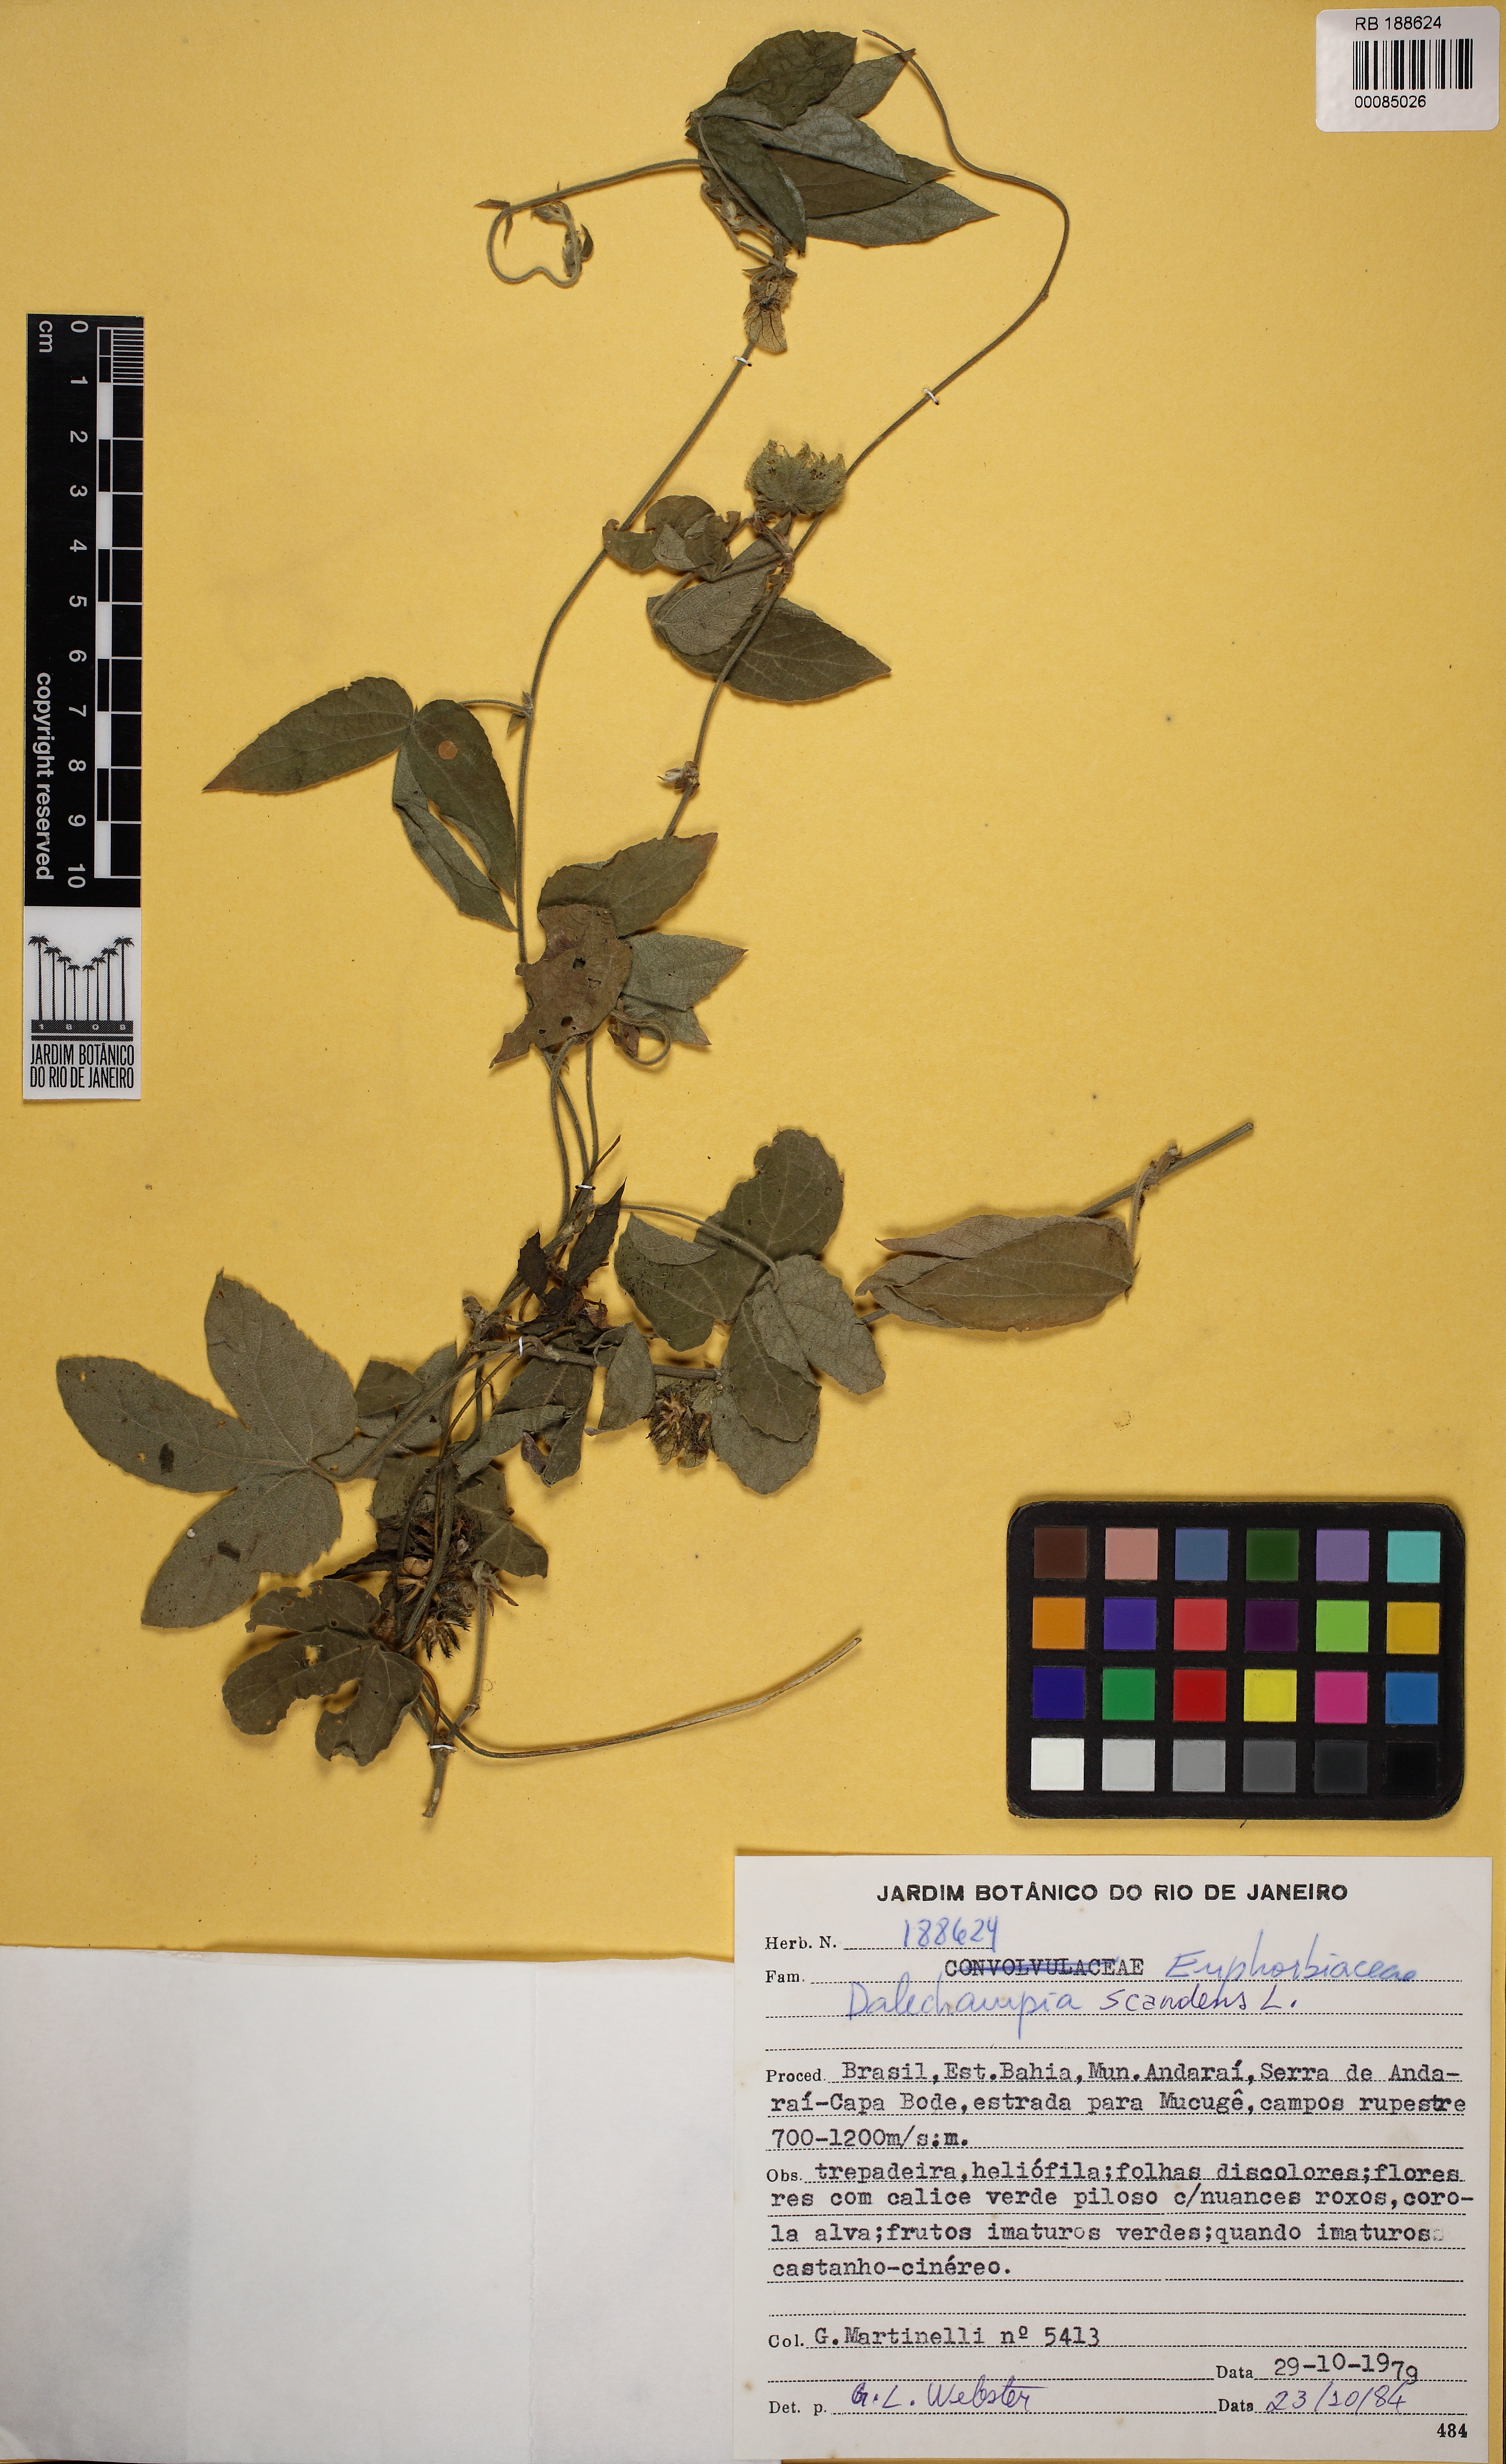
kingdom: Plantae
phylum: Tracheophyta
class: Magnoliopsida
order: Malpighiales
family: Euphorbiaceae
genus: Dalechampia
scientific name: Dalechampia ficifolia
